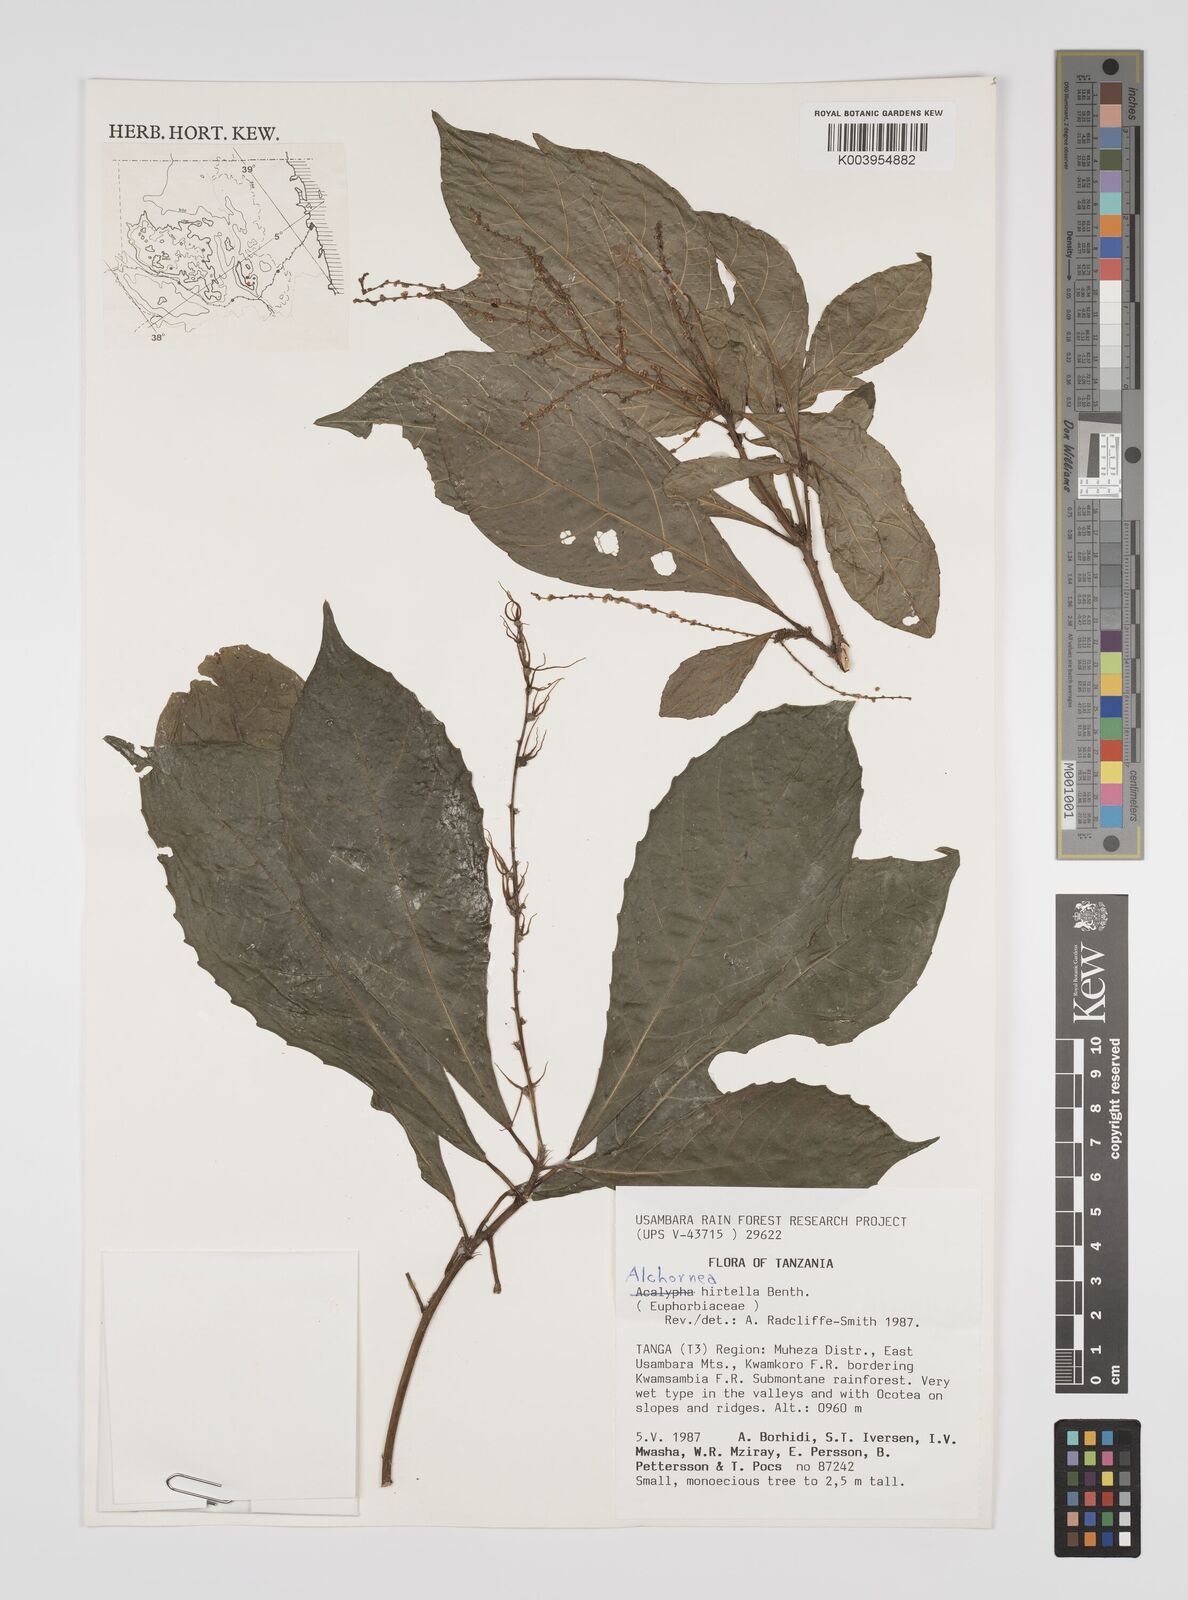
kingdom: Plantae
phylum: Tracheophyta
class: Magnoliopsida
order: Malpighiales
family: Euphorbiaceae
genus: Alchornea
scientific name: Alchornea hirtella
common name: Forest bead-string
